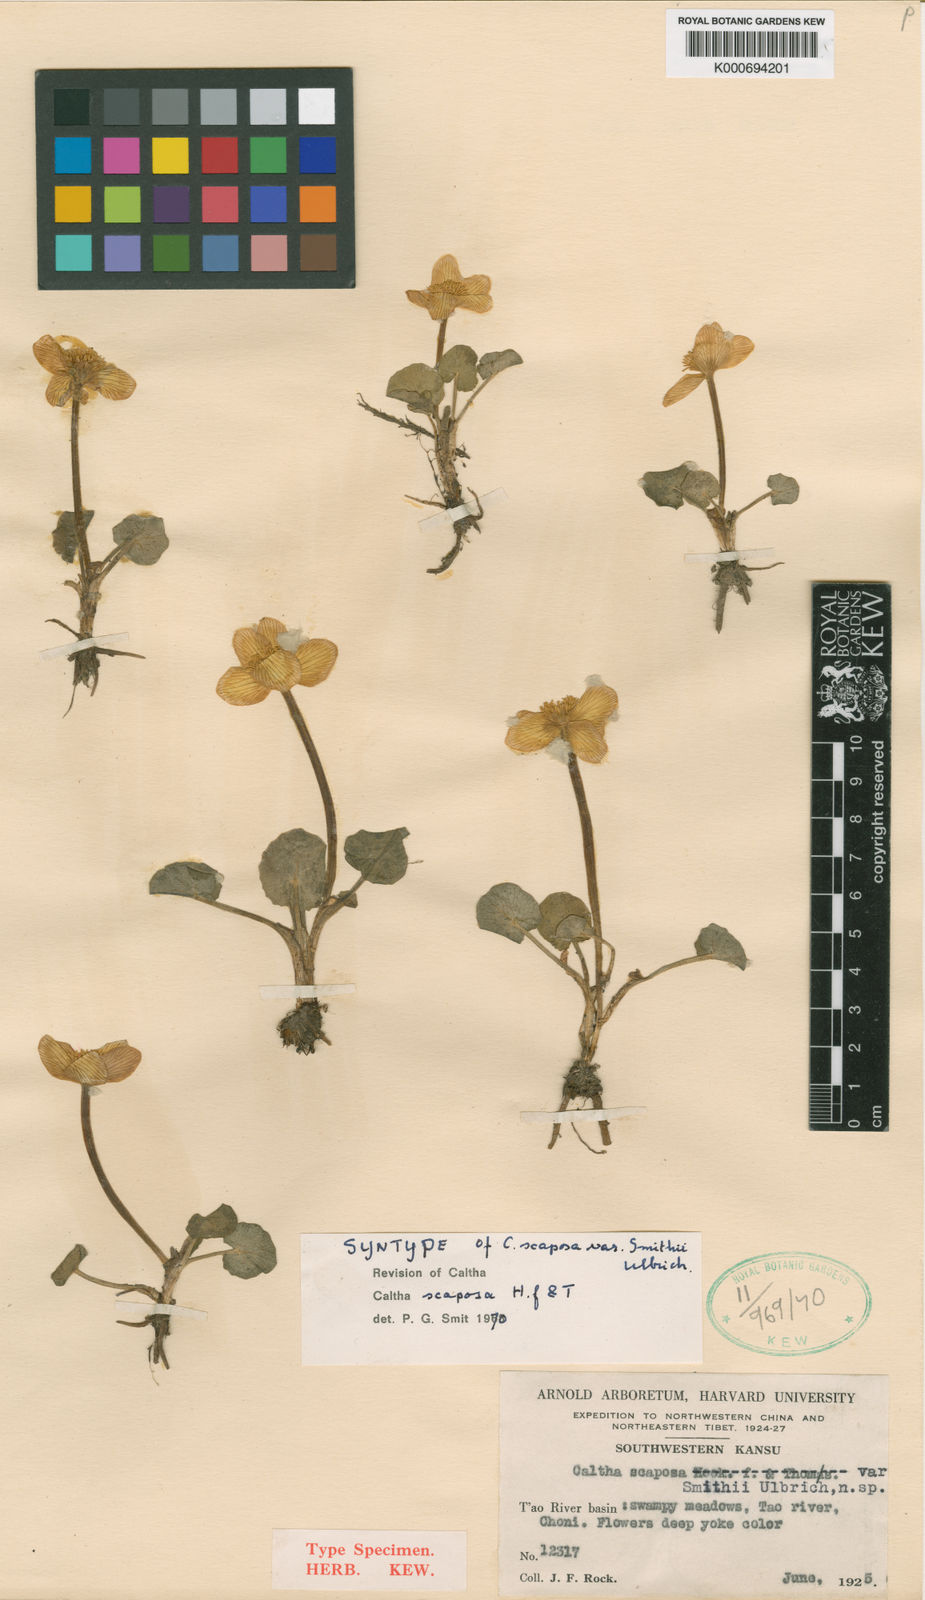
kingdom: Plantae
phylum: Tracheophyta
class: Magnoliopsida
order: Ranunculales
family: Ranunculaceae
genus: Caltha
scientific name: Caltha scaposa
